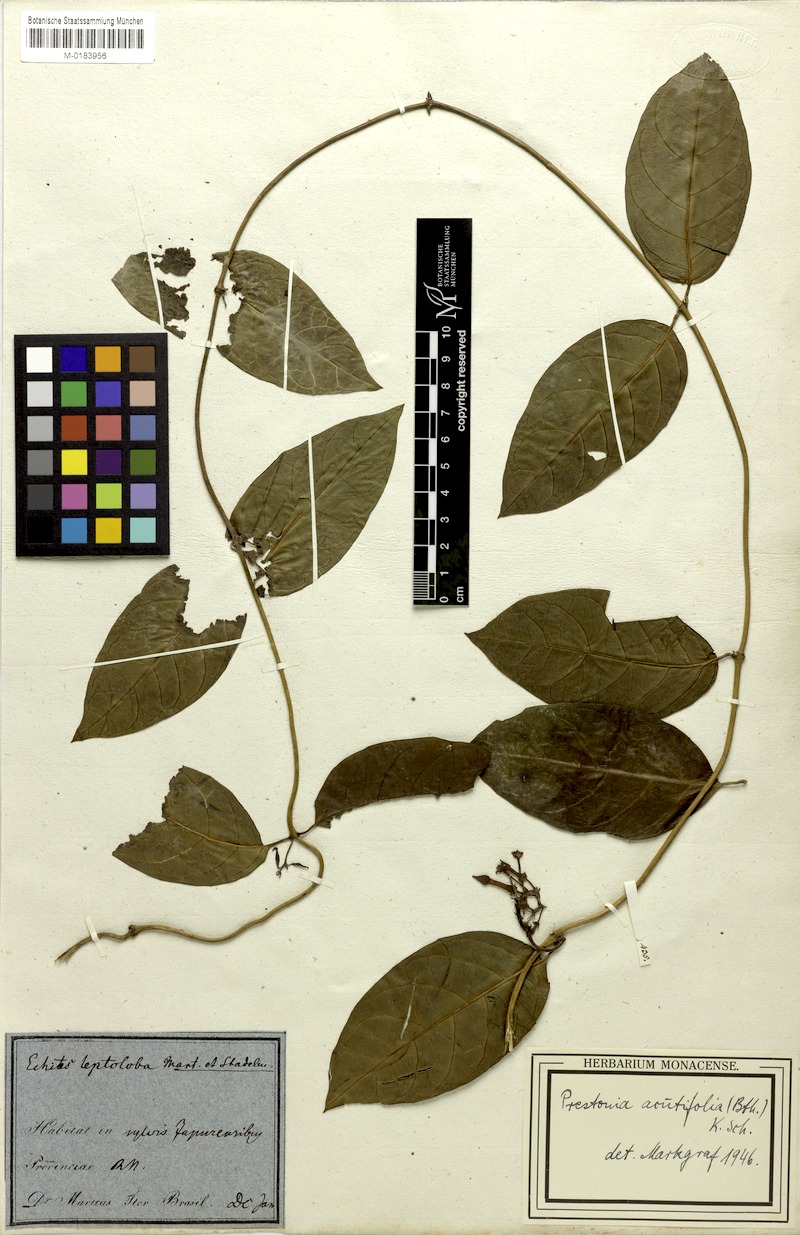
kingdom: Plantae
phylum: Tracheophyta
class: Magnoliopsida
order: Gentianales
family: Apocynaceae
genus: Prestonia
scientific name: Prestonia quinquangularis
